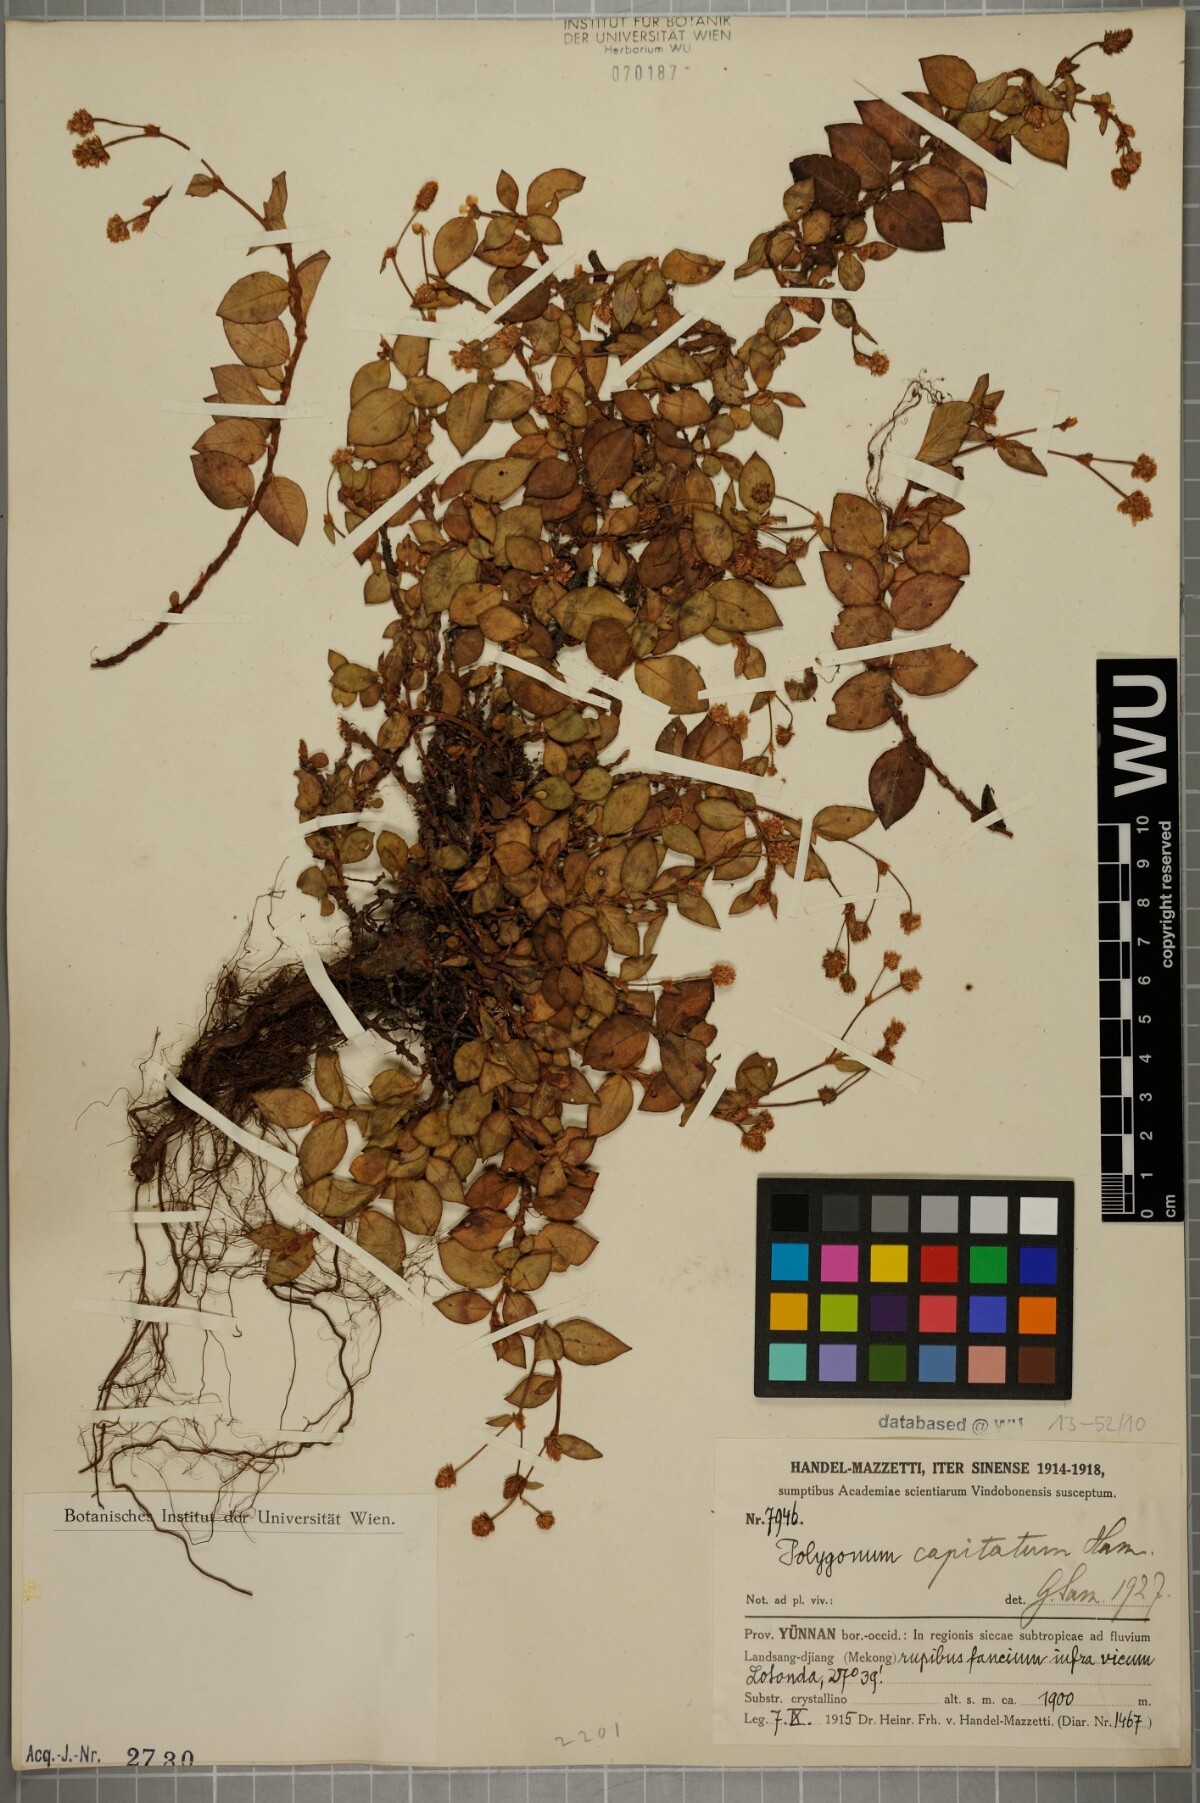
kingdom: Plantae
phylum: Tracheophyta
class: Magnoliopsida
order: Caryophyllales
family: Polygonaceae
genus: Persicaria
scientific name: Persicaria capitata
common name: Pinkhead smartweed
